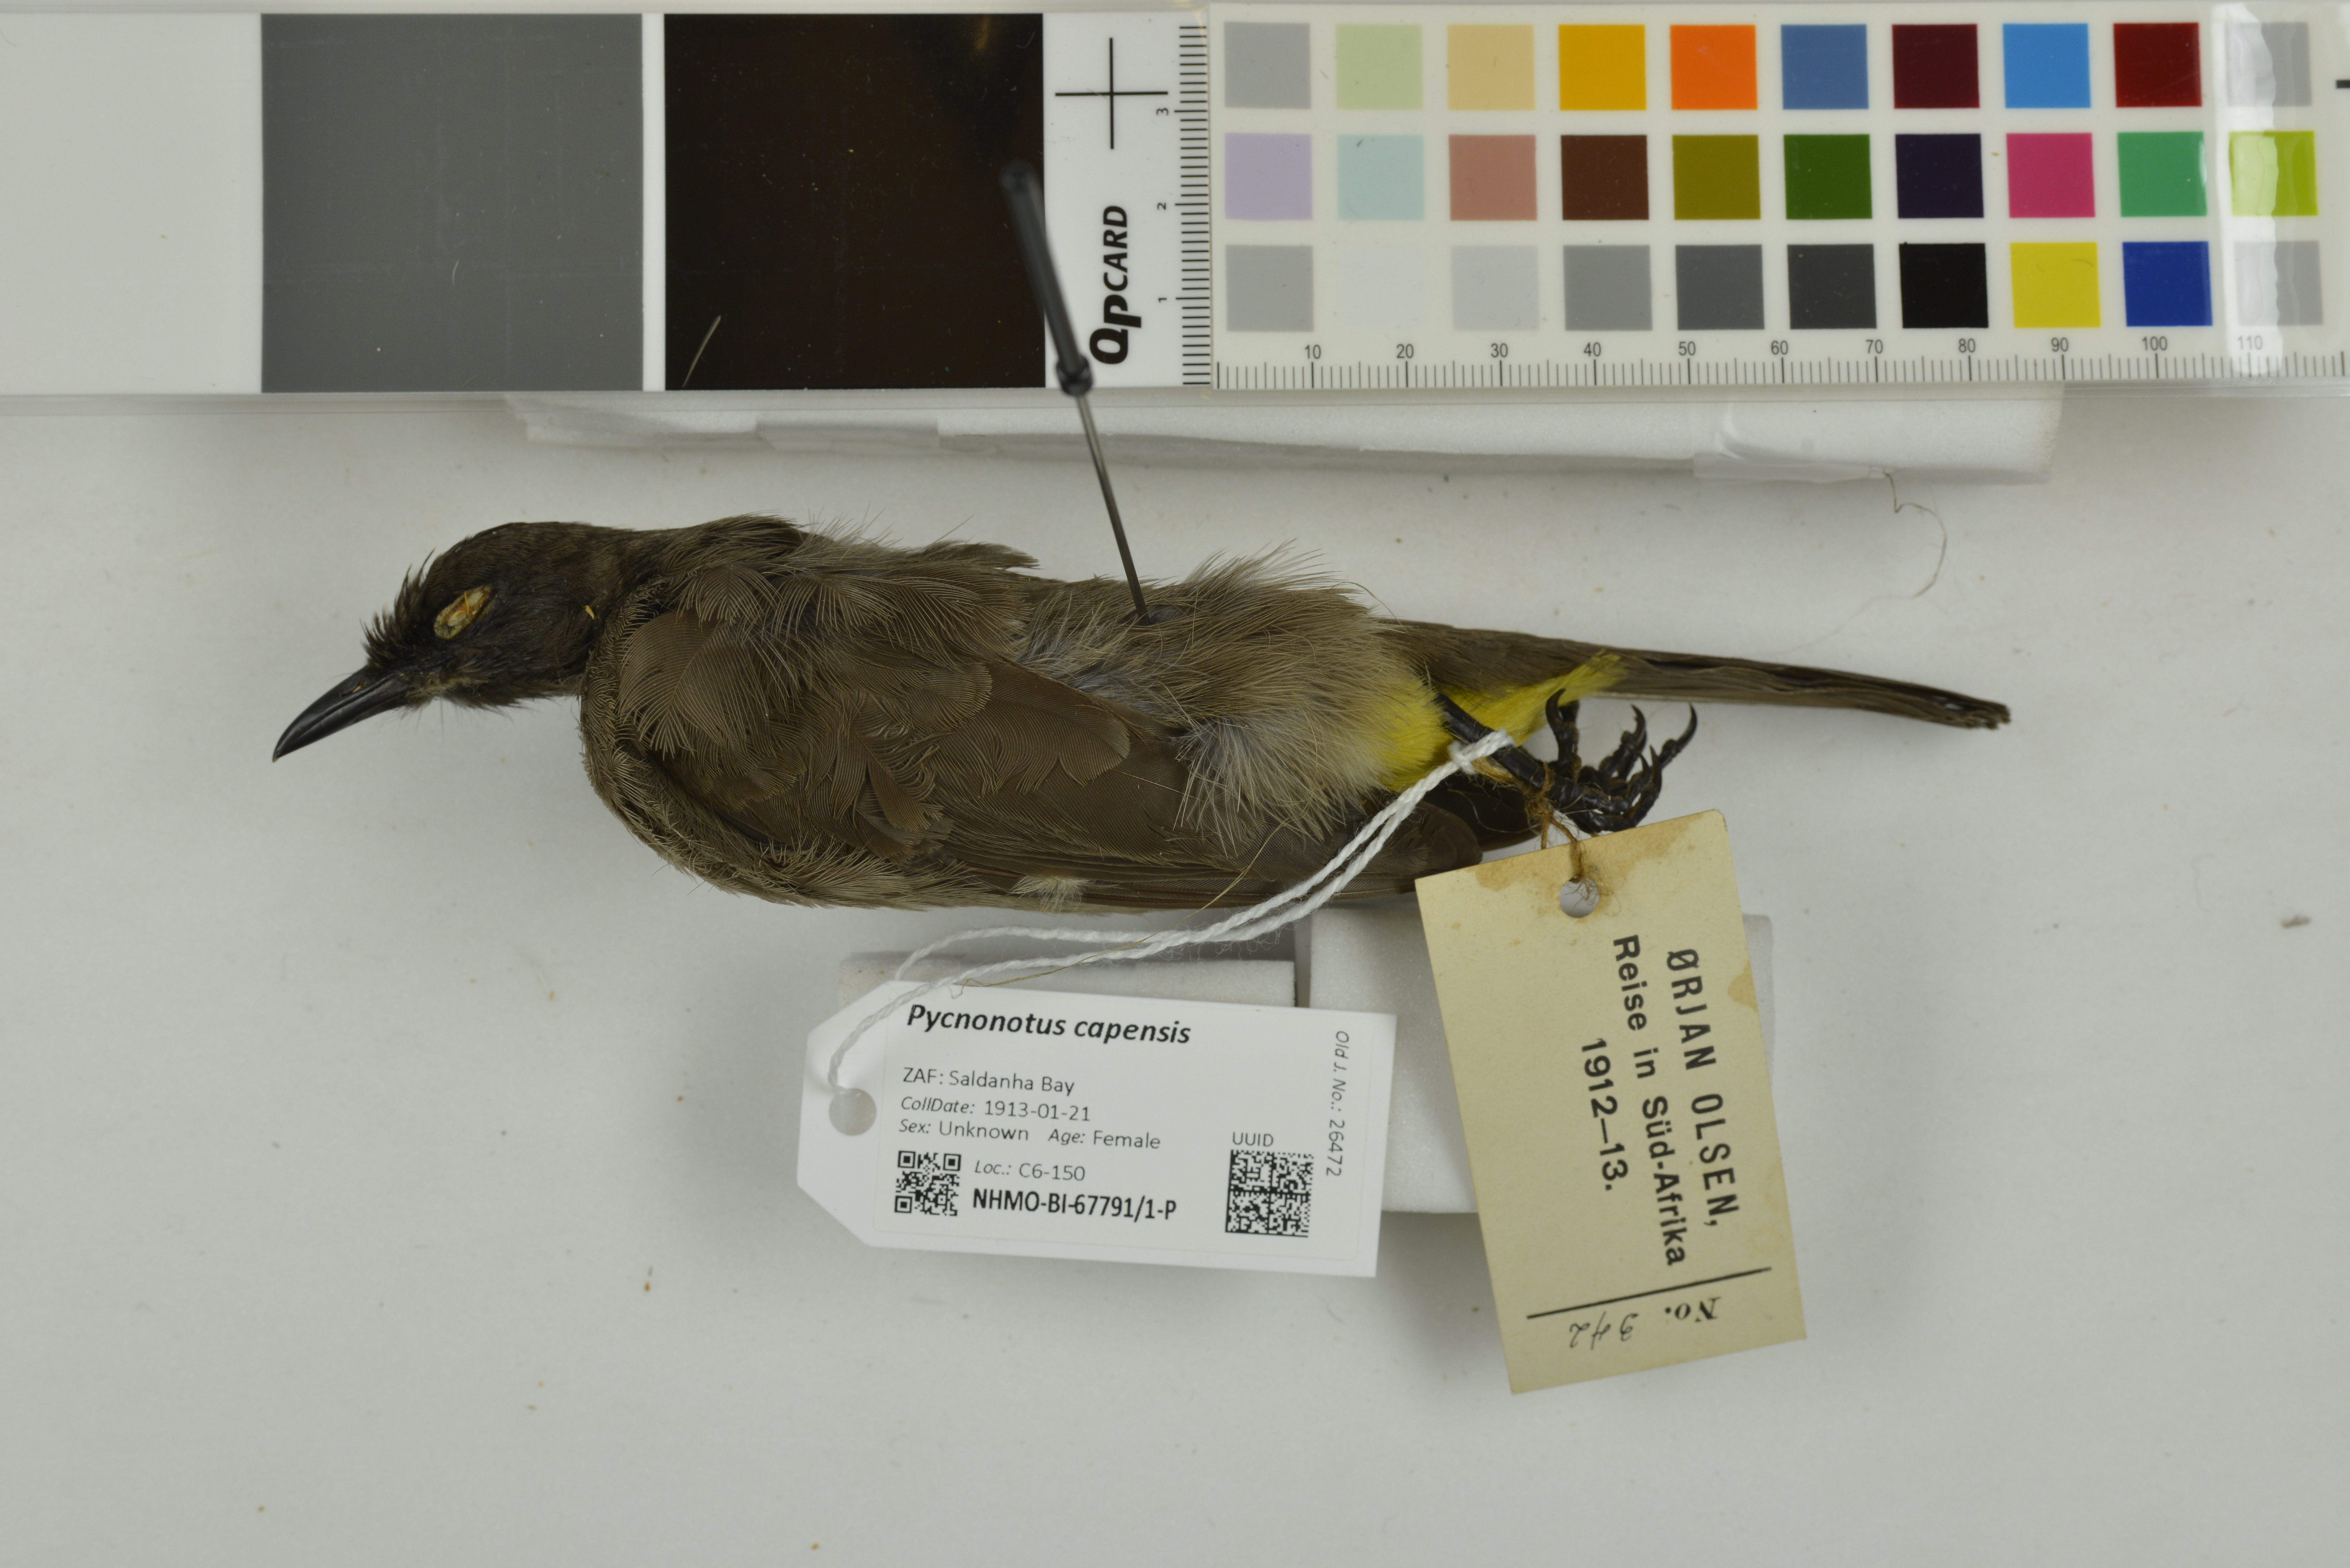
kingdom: Animalia
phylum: Chordata
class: Aves
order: Passeriformes
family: Pycnonotidae
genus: Pycnonotus
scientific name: Pycnonotus capensis
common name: Cape bulbul
